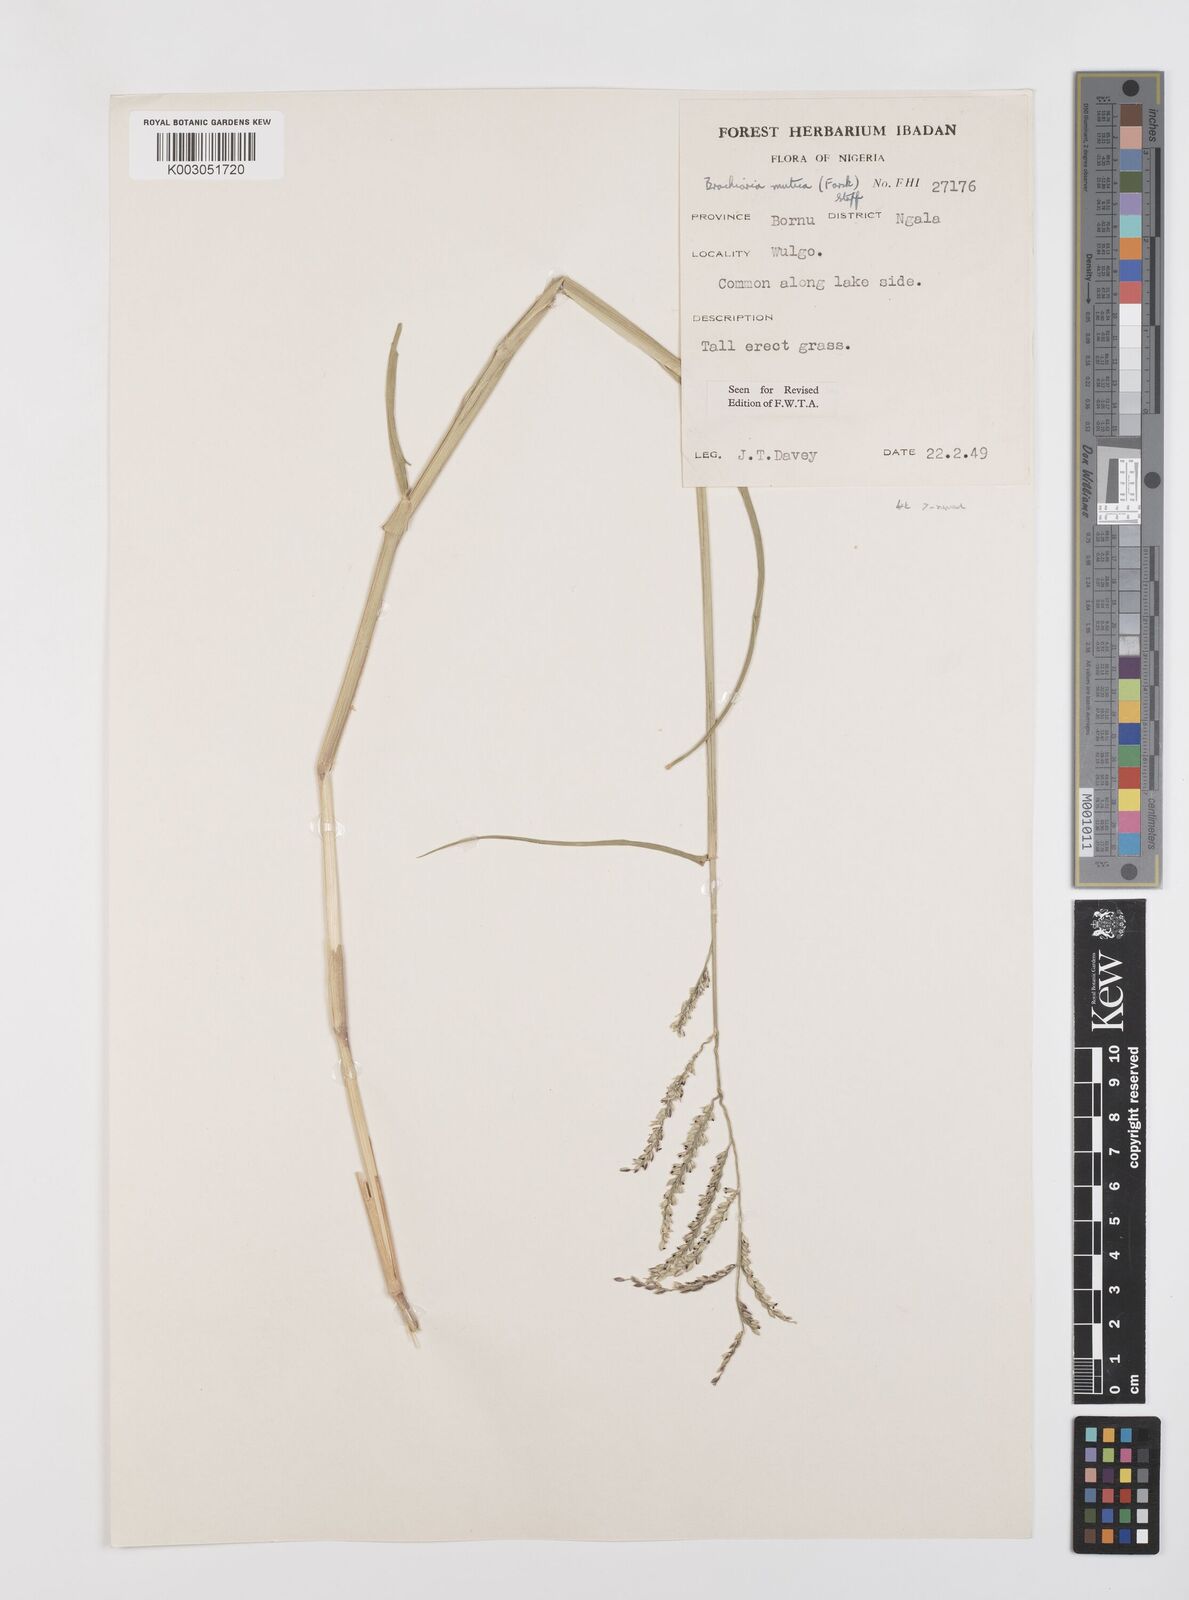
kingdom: Plantae
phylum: Tracheophyta
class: Liliopsida
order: Poales
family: Poaceae
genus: Urochloa
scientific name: Urochloa mutica
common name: Para grass
